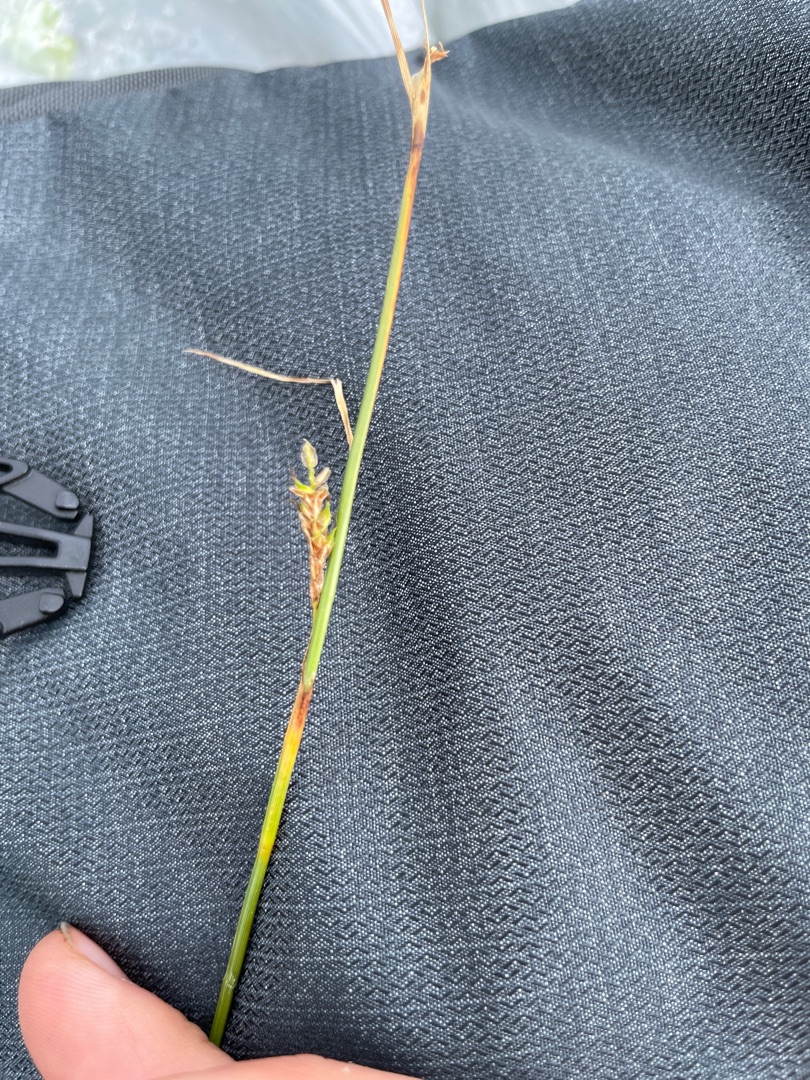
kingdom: Plantae
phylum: Tracheophyta
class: Liliopsida
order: Poales
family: Cyperaceae
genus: Carex
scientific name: Carex distans
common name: Fjernakset star
